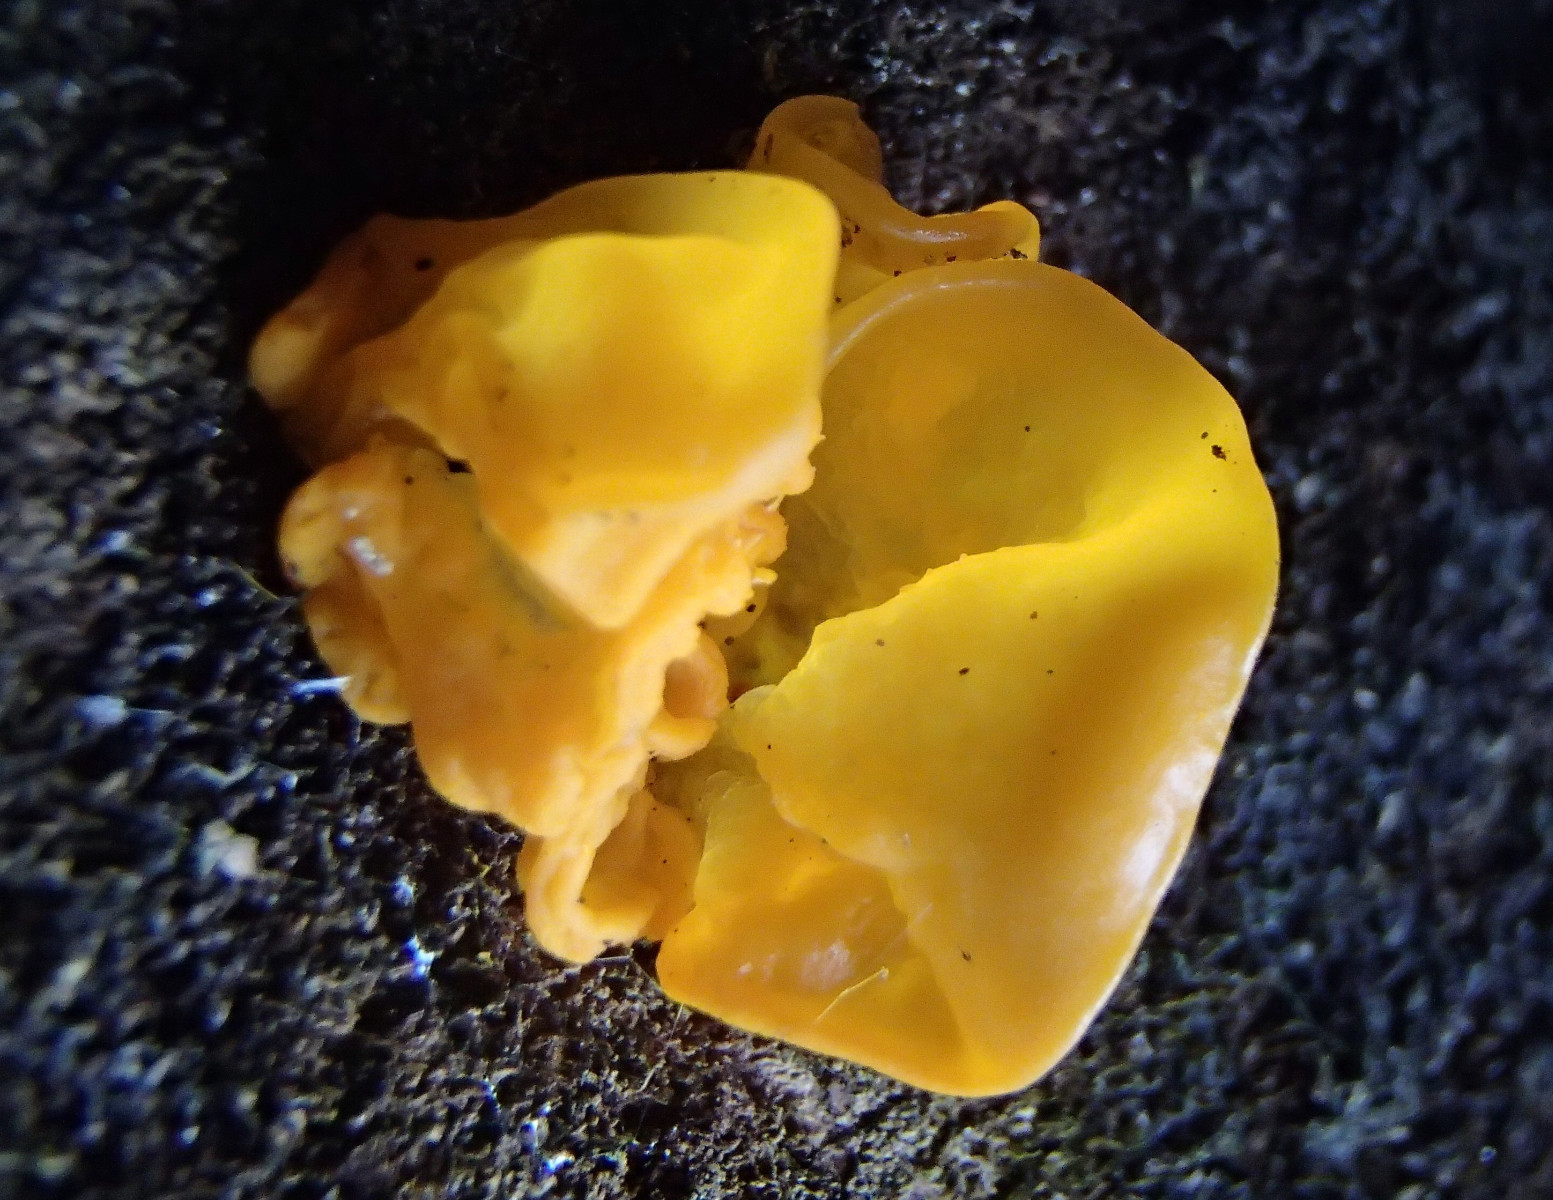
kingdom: Fungi
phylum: Basidiomycota
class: Tremellomycetes
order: Tremellales
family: Tremellaceae
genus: Tremella
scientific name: Tremella mesenterica
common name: gul bævresvamp
